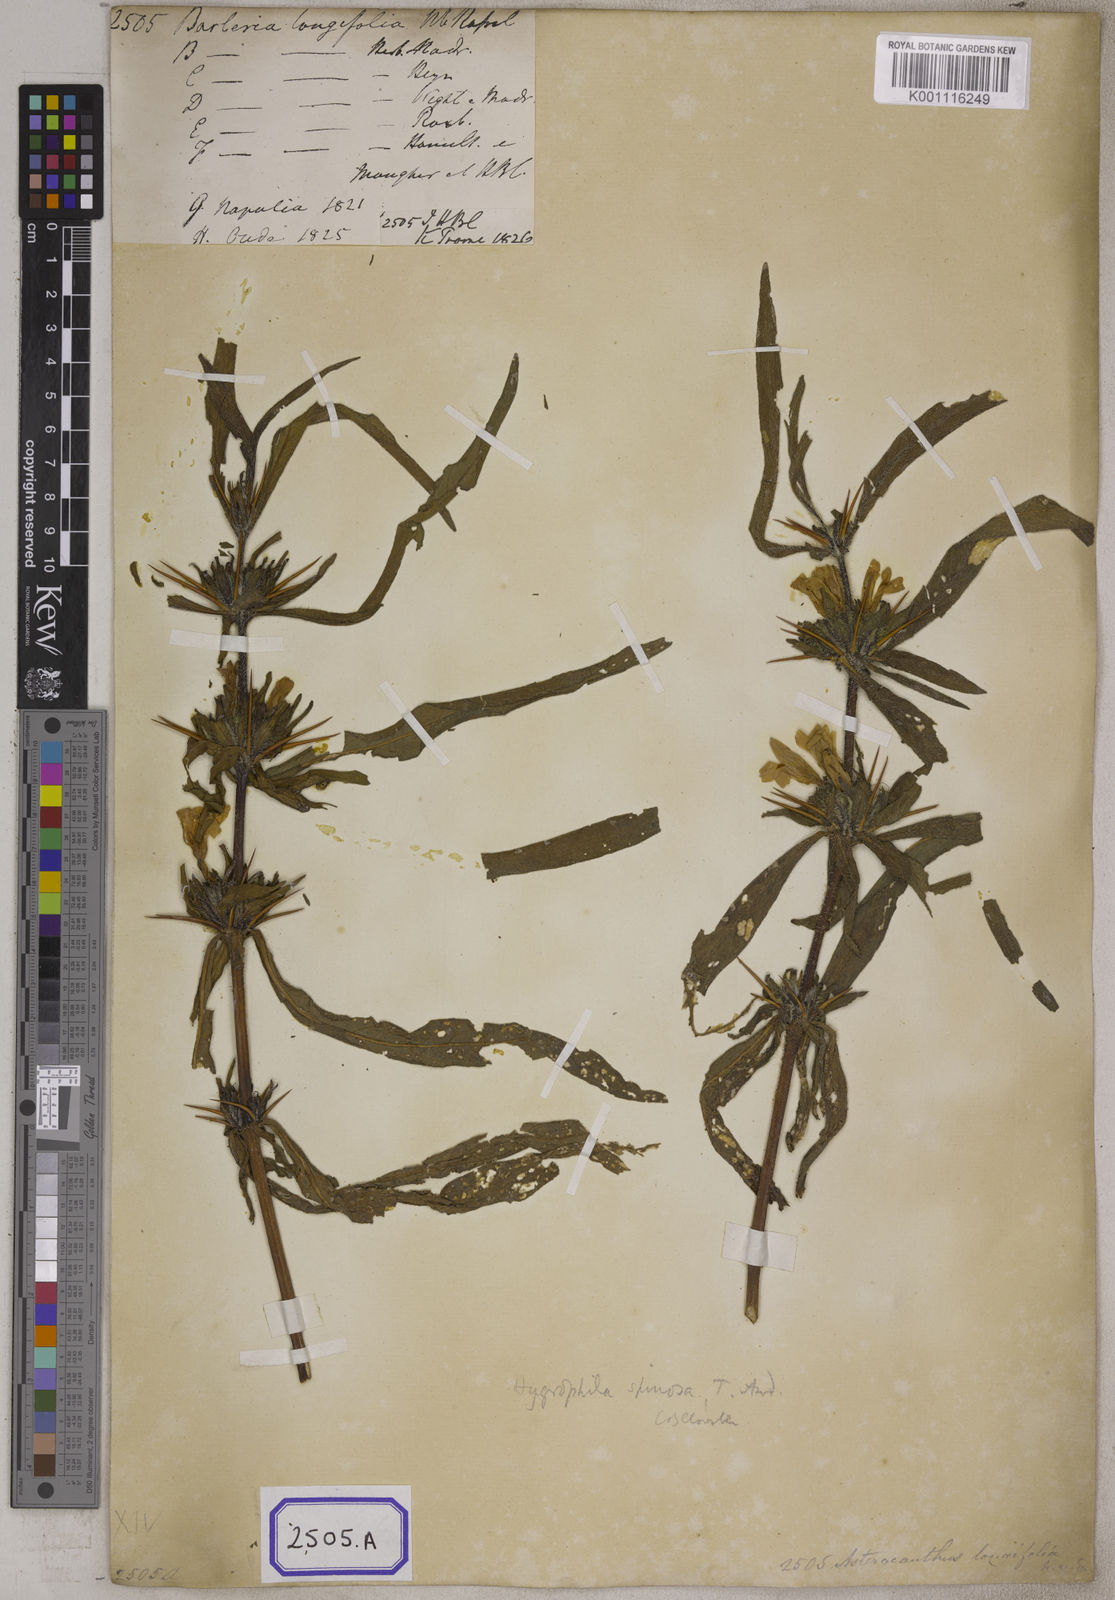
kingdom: Plantae
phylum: Tracheophyta
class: Magnoliopsida
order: Lamiales
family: Acanthaceae
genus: Barleria
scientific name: Barleria longiflora
